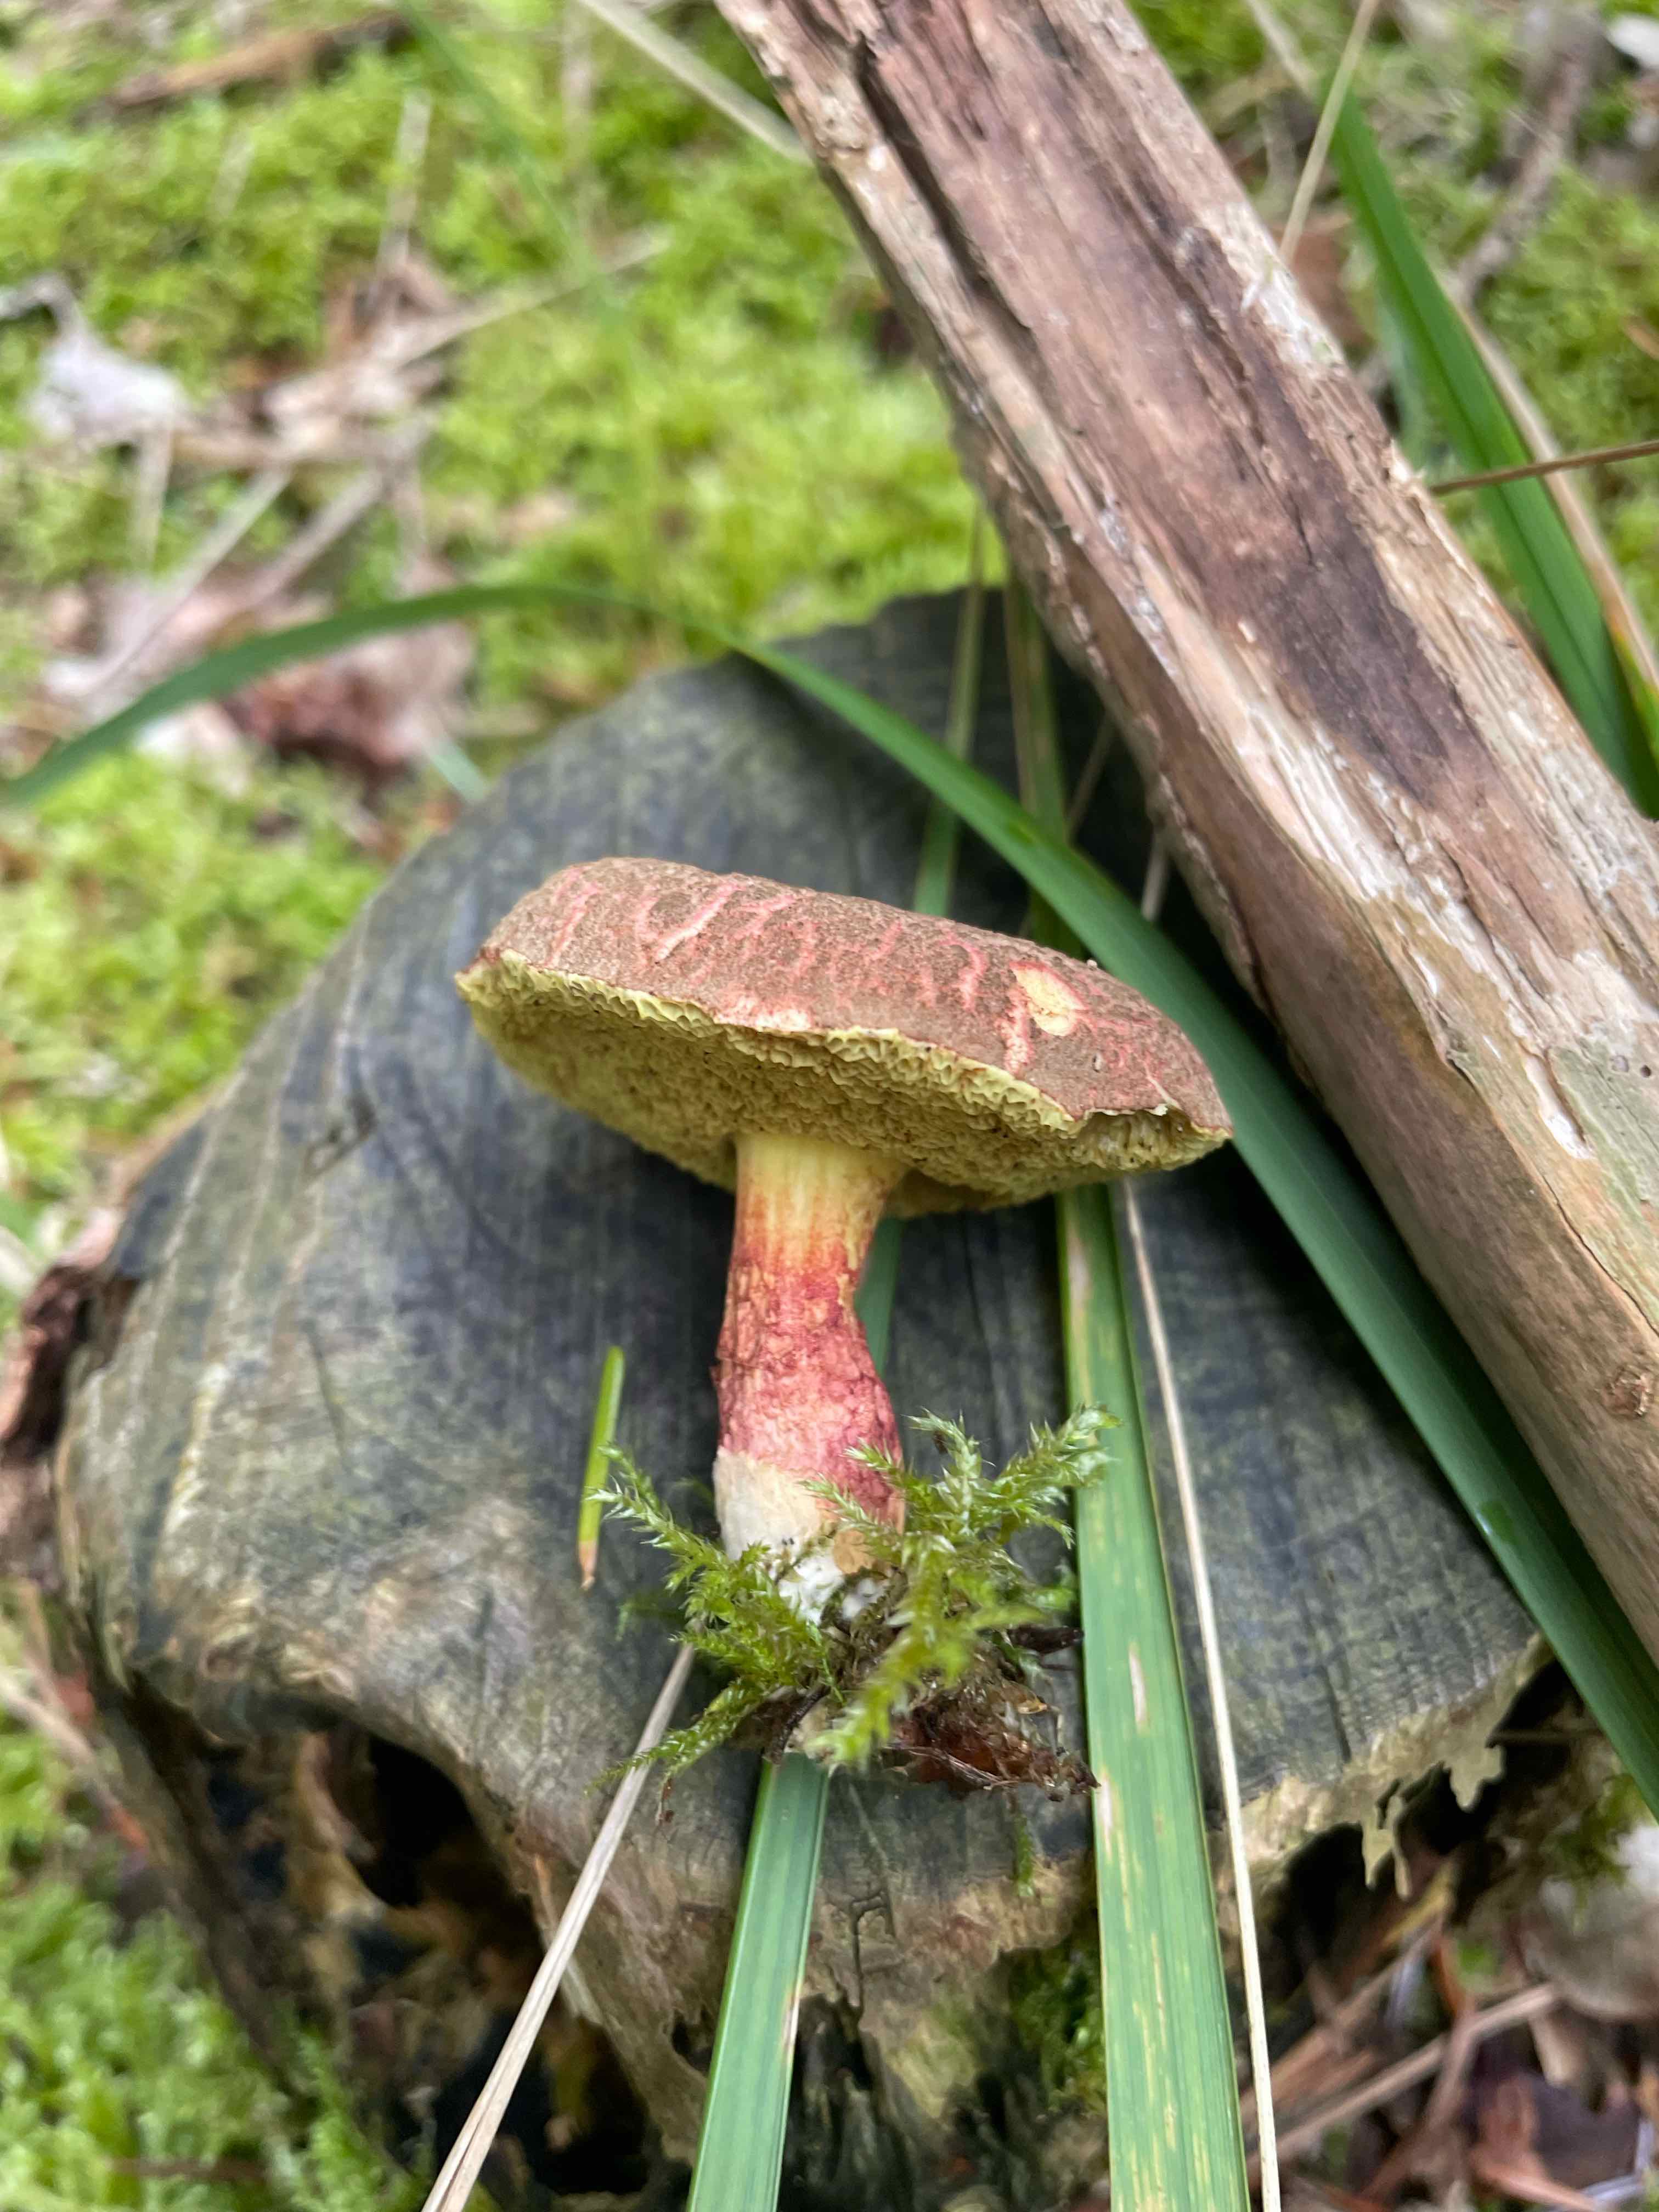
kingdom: Fungi
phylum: Basidiomycota
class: Agaricomycetes
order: Boletales
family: Boletaceae
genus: Xerocomellus
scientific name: Xerocomellus
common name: dværgrørhat
